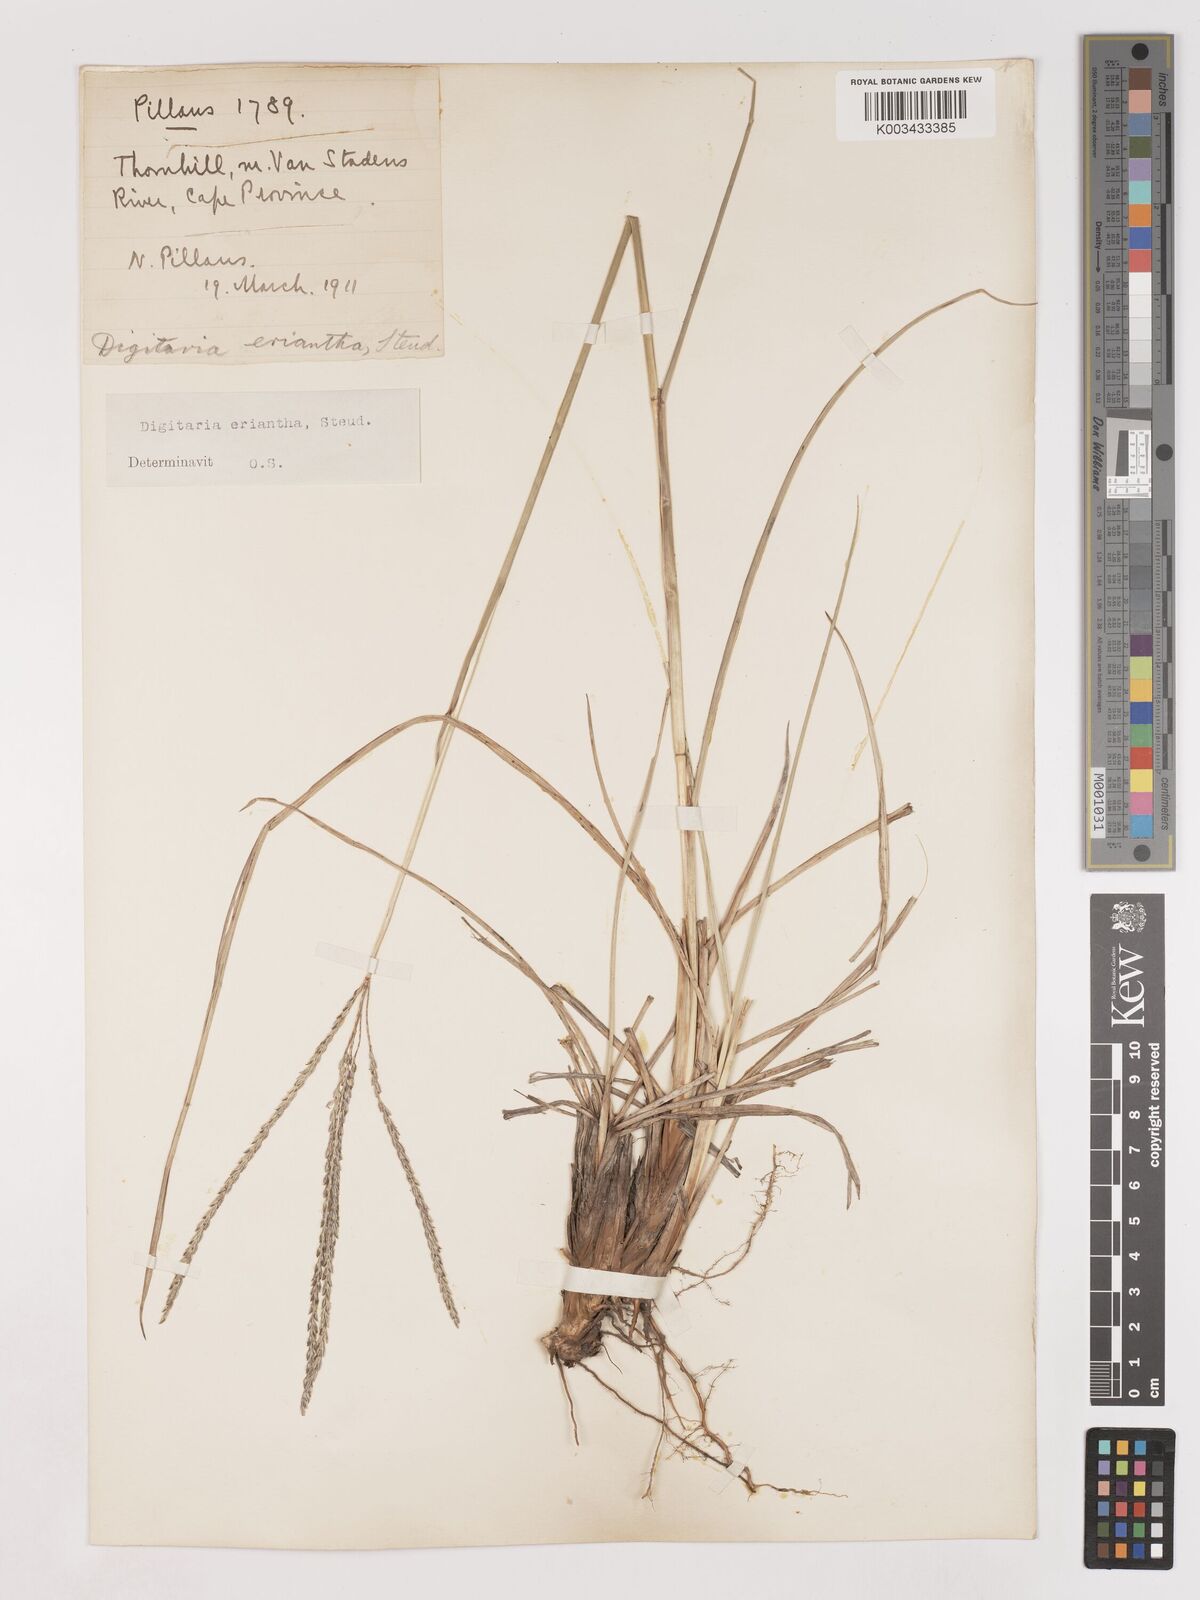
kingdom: Plantae
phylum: Tracheophyta
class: Liliopsida
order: Poales
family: Poaceae
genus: Digitaria
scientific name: Digitaria eriantha
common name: Digitgrass
